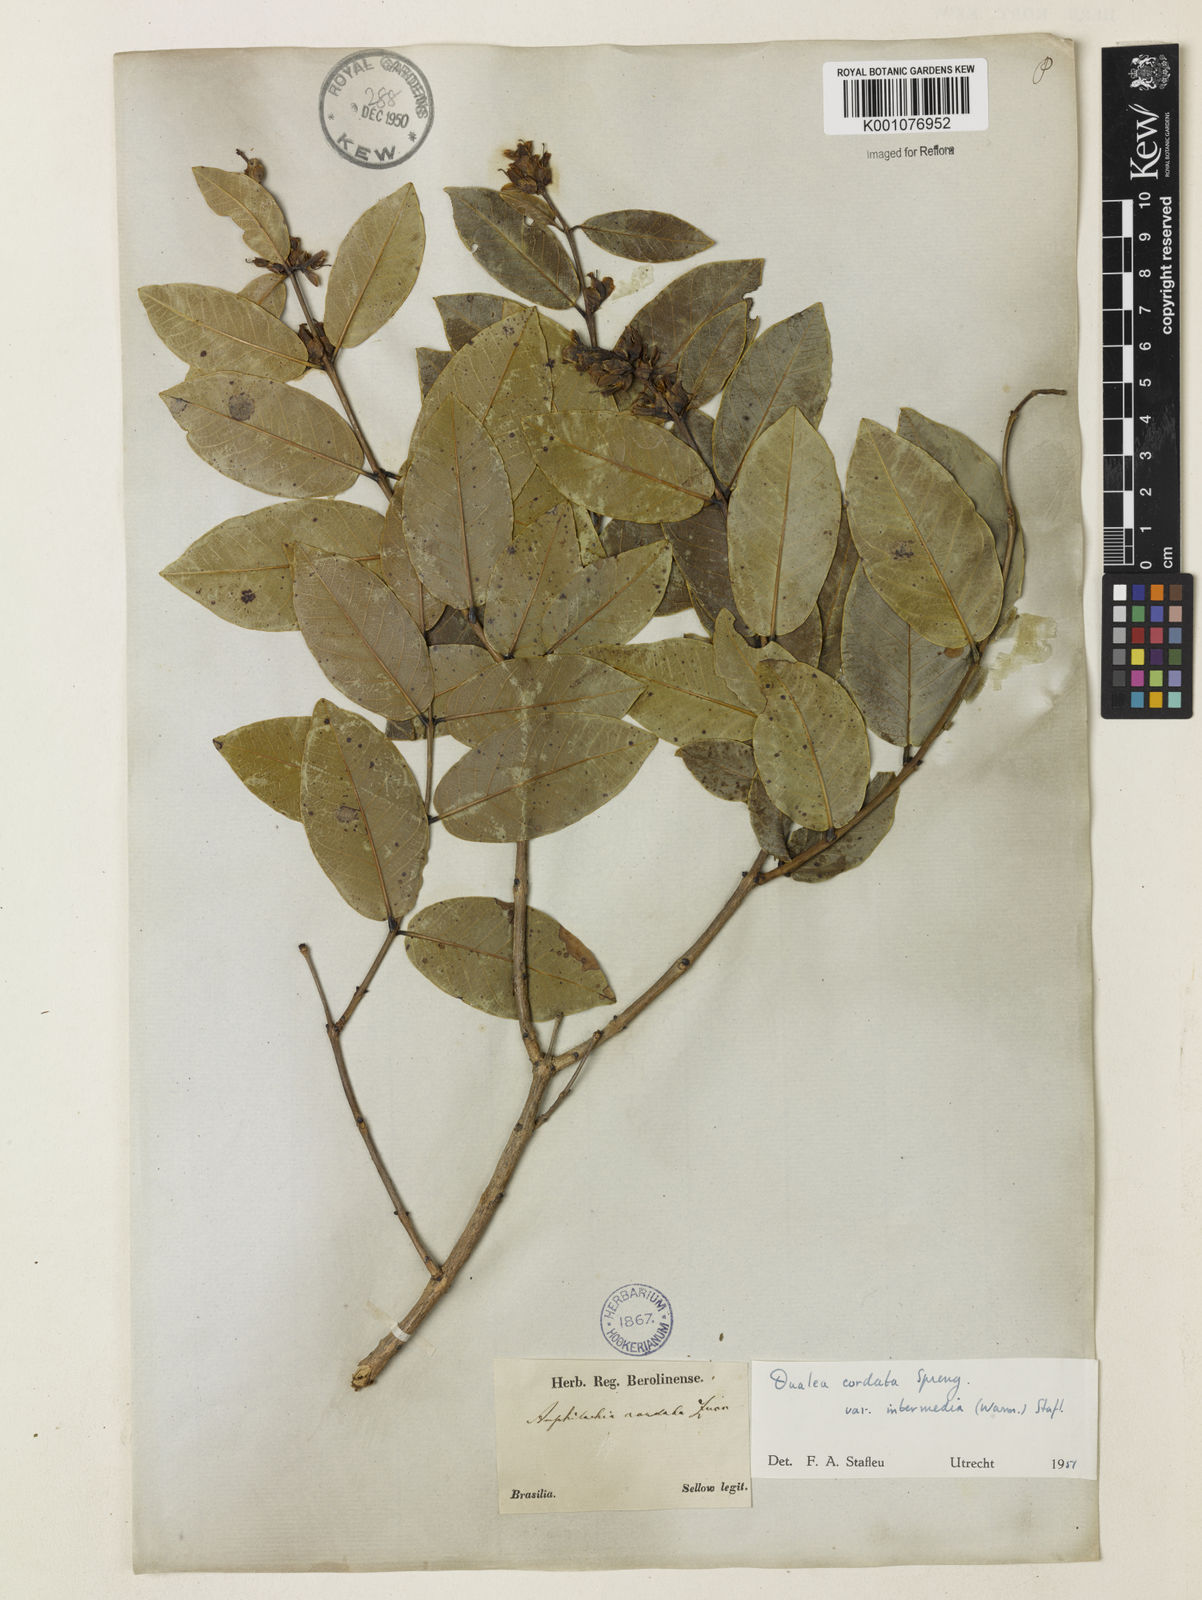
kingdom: Plantae
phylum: Tracheophyta
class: Magnoliopsida
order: Myrtales
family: Vochysiaceae
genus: Qualea
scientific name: Qualea cordata
